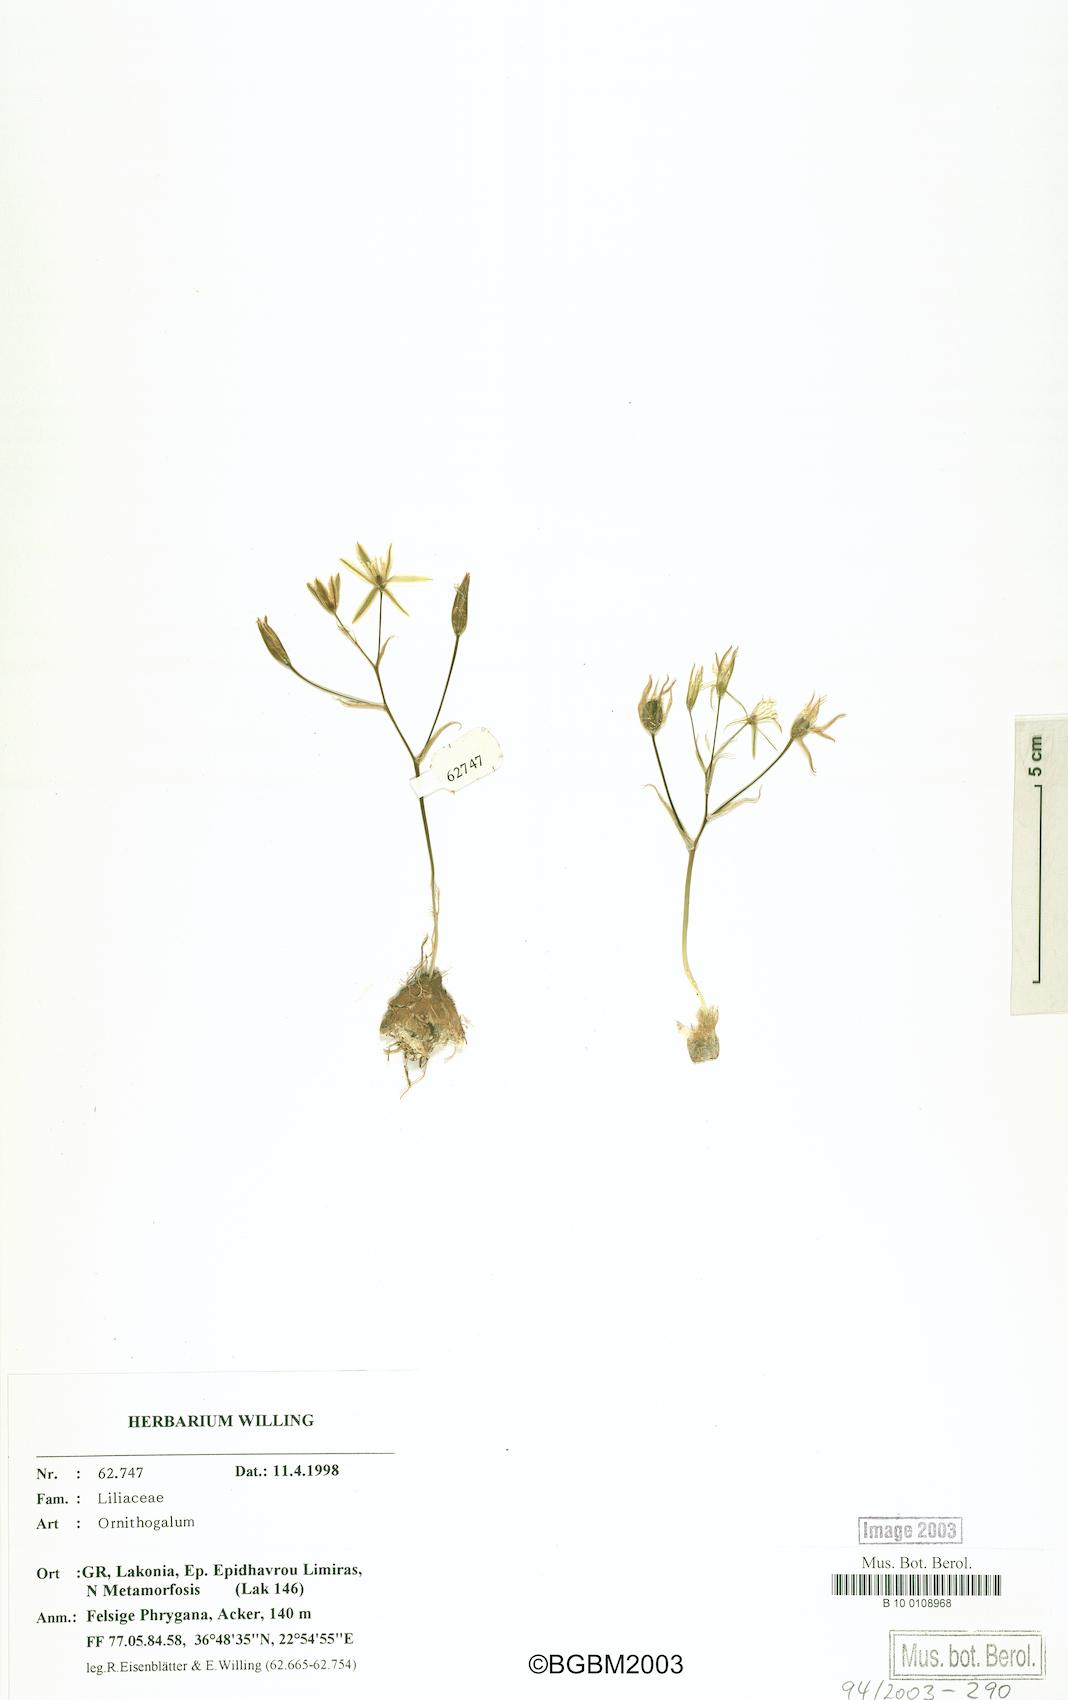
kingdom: Plantae
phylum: Tracheophyta
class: Liliopsida
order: Asparagales
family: Asparagaceae
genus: Ornithogalum
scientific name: Ornithogalum gussonei
